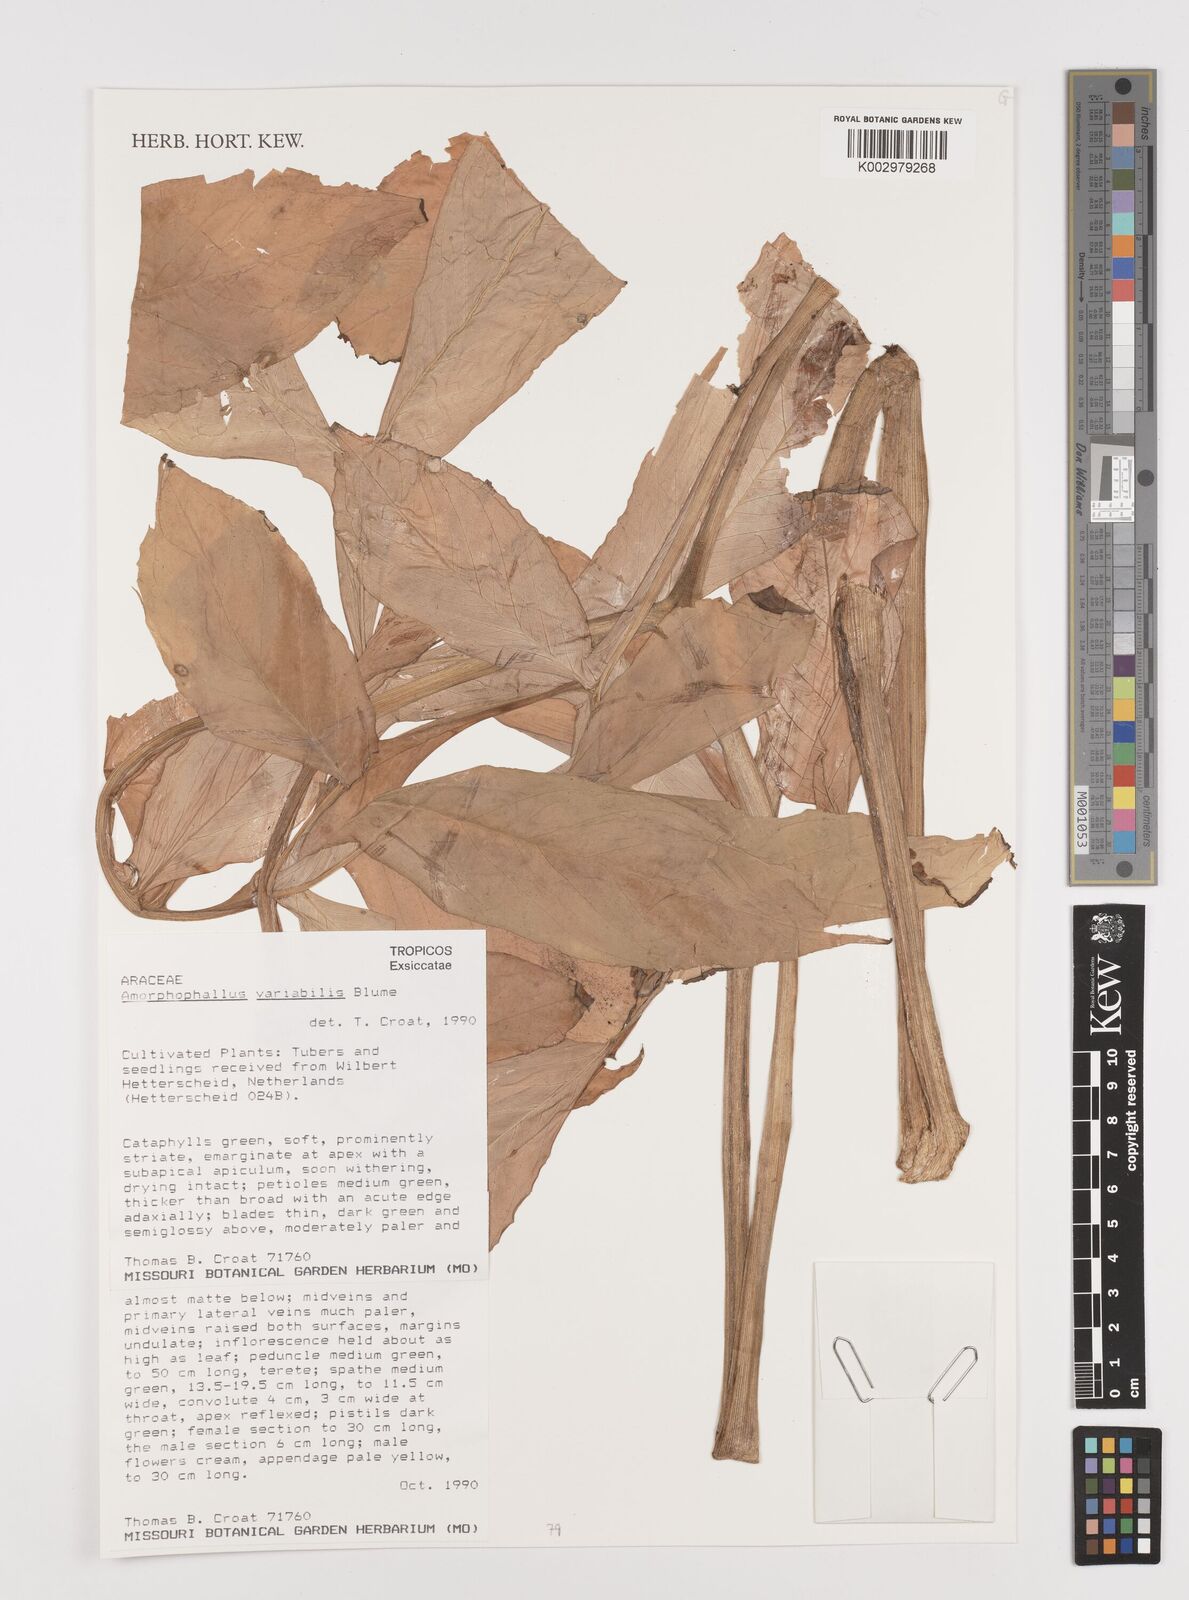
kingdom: Plantae
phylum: Tracheophyta
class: Liliopsida
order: Alismatales
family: Araceae
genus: Amorphophallus
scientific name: Amorphophallus variabilis
